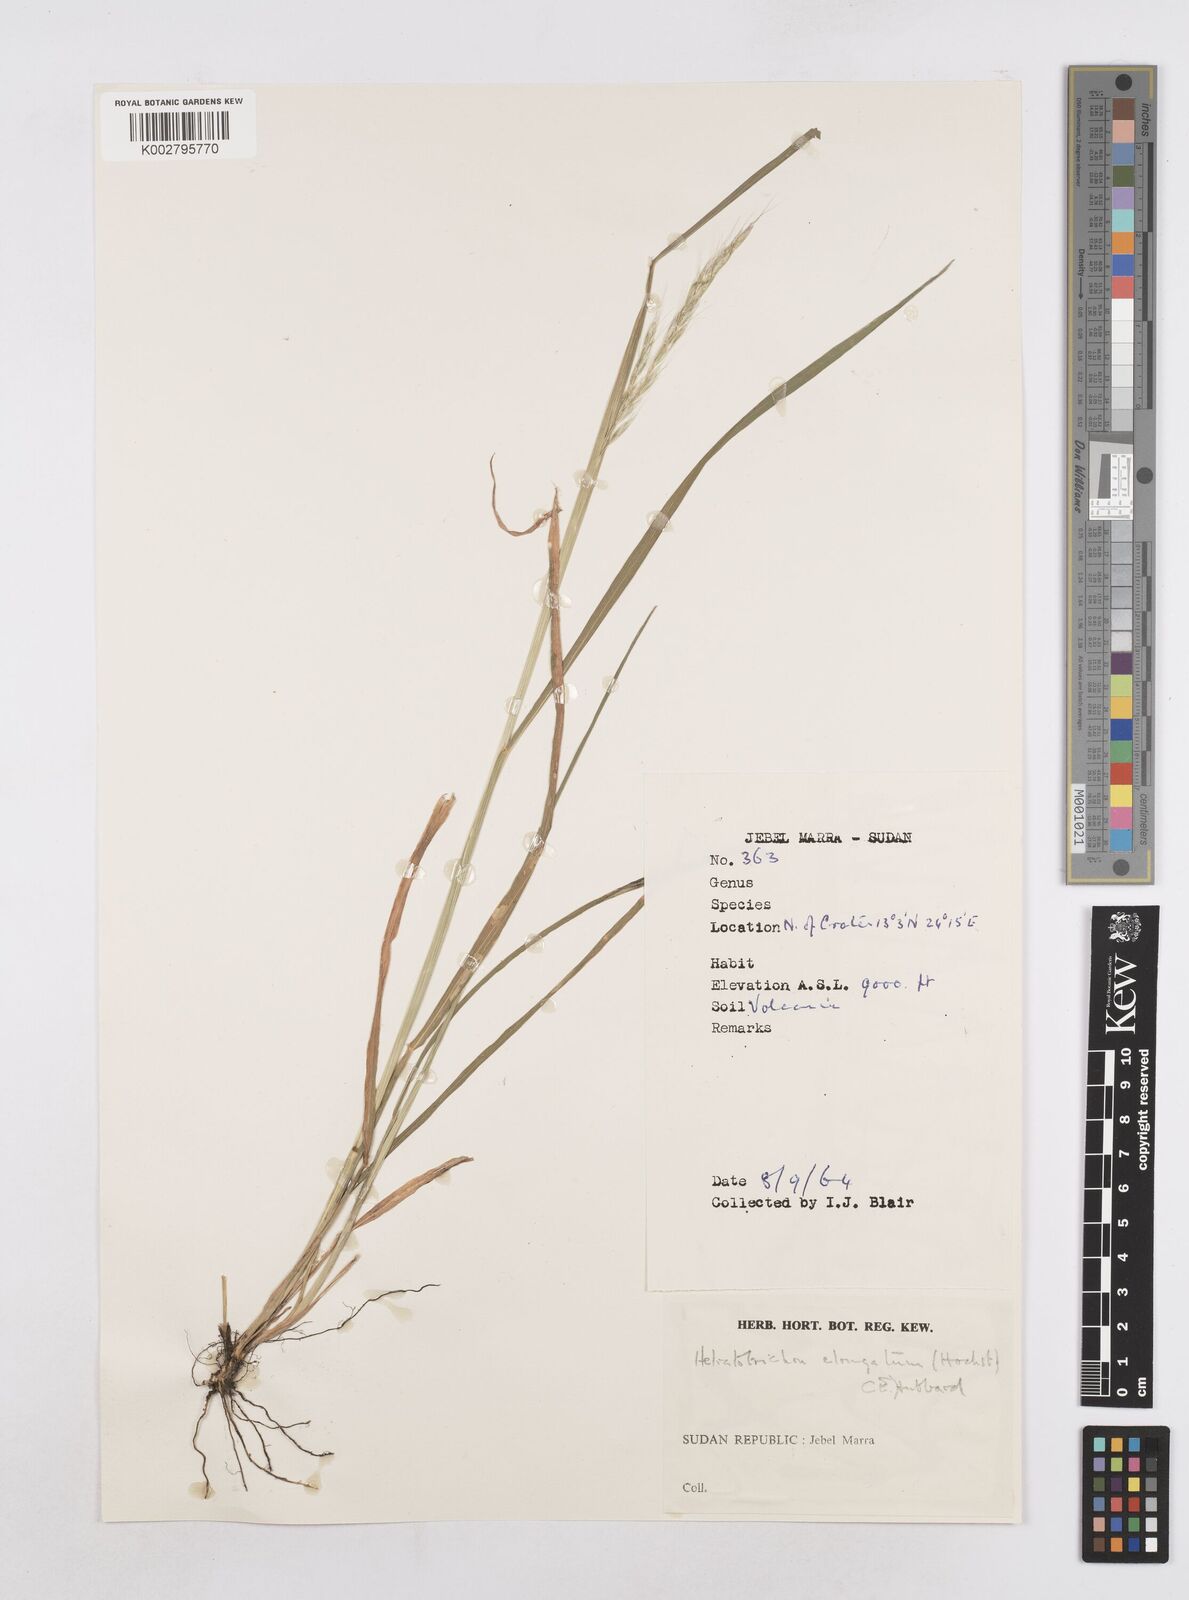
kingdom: Plantae
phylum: Tracheophyta
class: Liliopsida
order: Poales
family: Poaceae
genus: Trisetopsis
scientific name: Trisetopsis elongata
